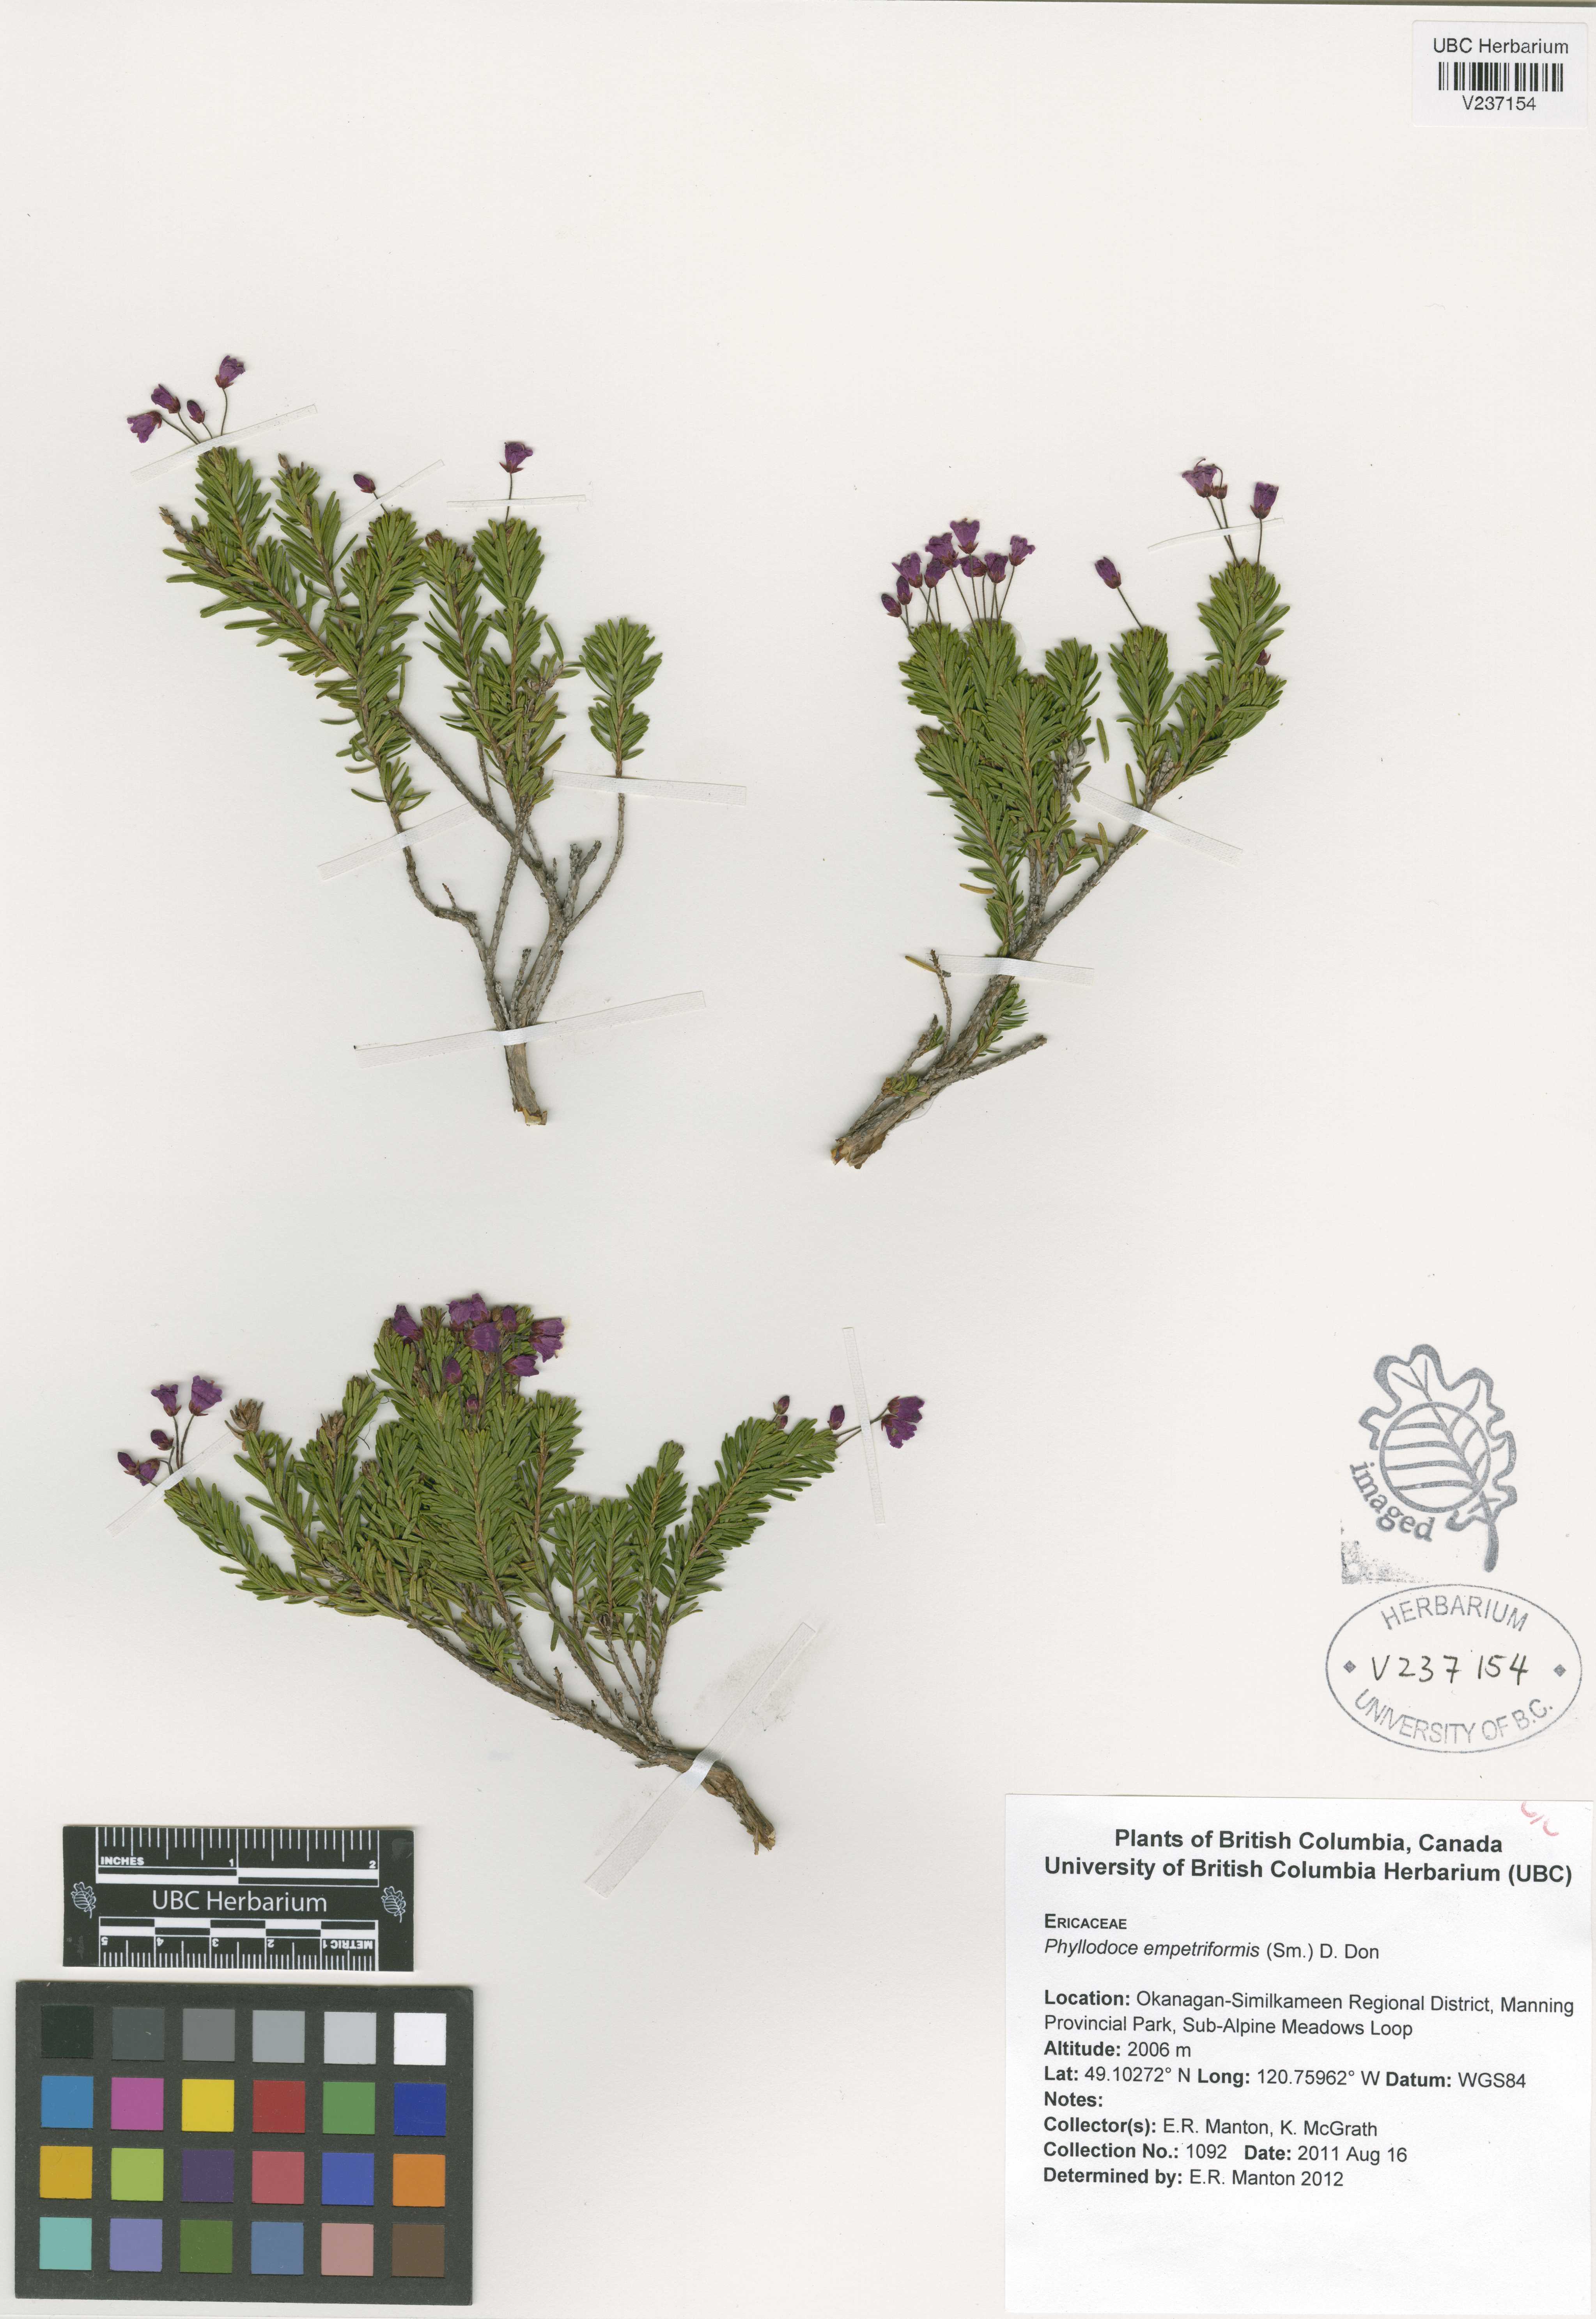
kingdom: Plantae
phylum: Tracheophyta
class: Magnoliopsida
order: Ericales
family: Ericaceae
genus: Phyllodoce
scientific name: Phyllodoce empetriformis
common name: Pink mountain heather
